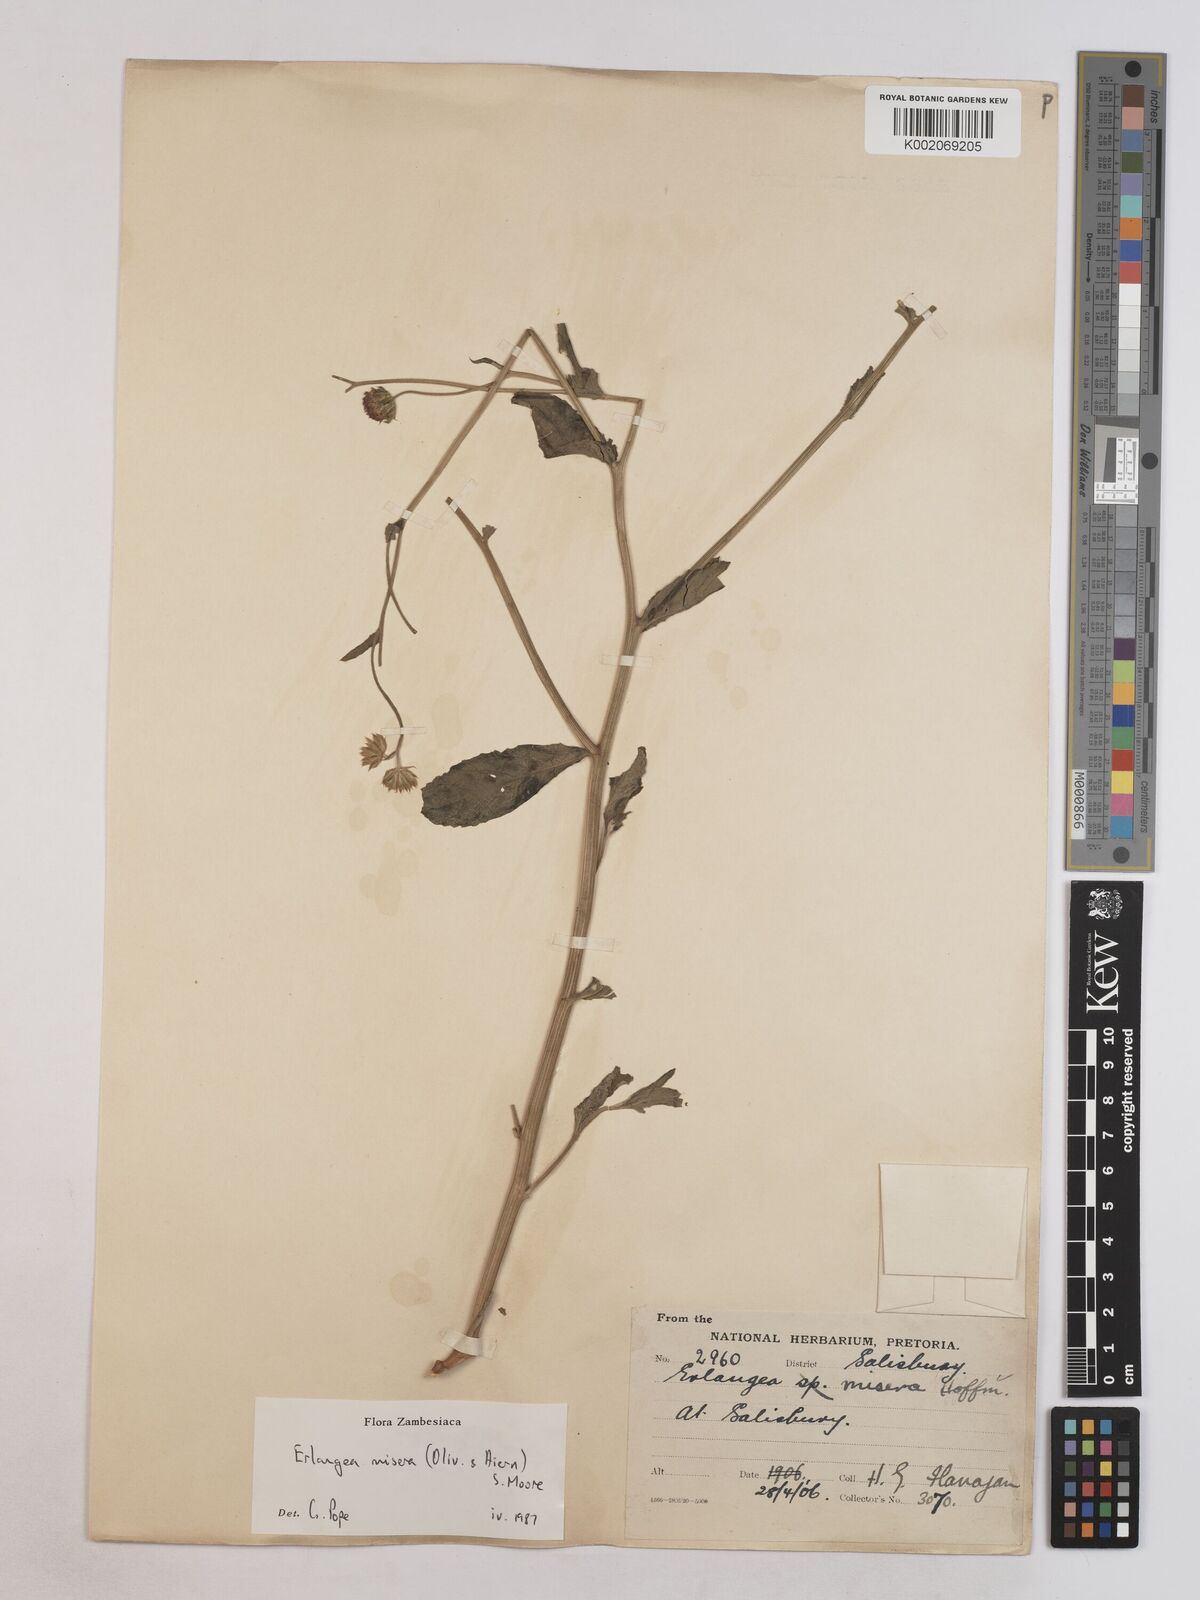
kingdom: Plantae
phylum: Tracheophyta
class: Magnoliopsida
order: Asterales
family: Asteraceae
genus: Erlangea
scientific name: Erlangea misera
